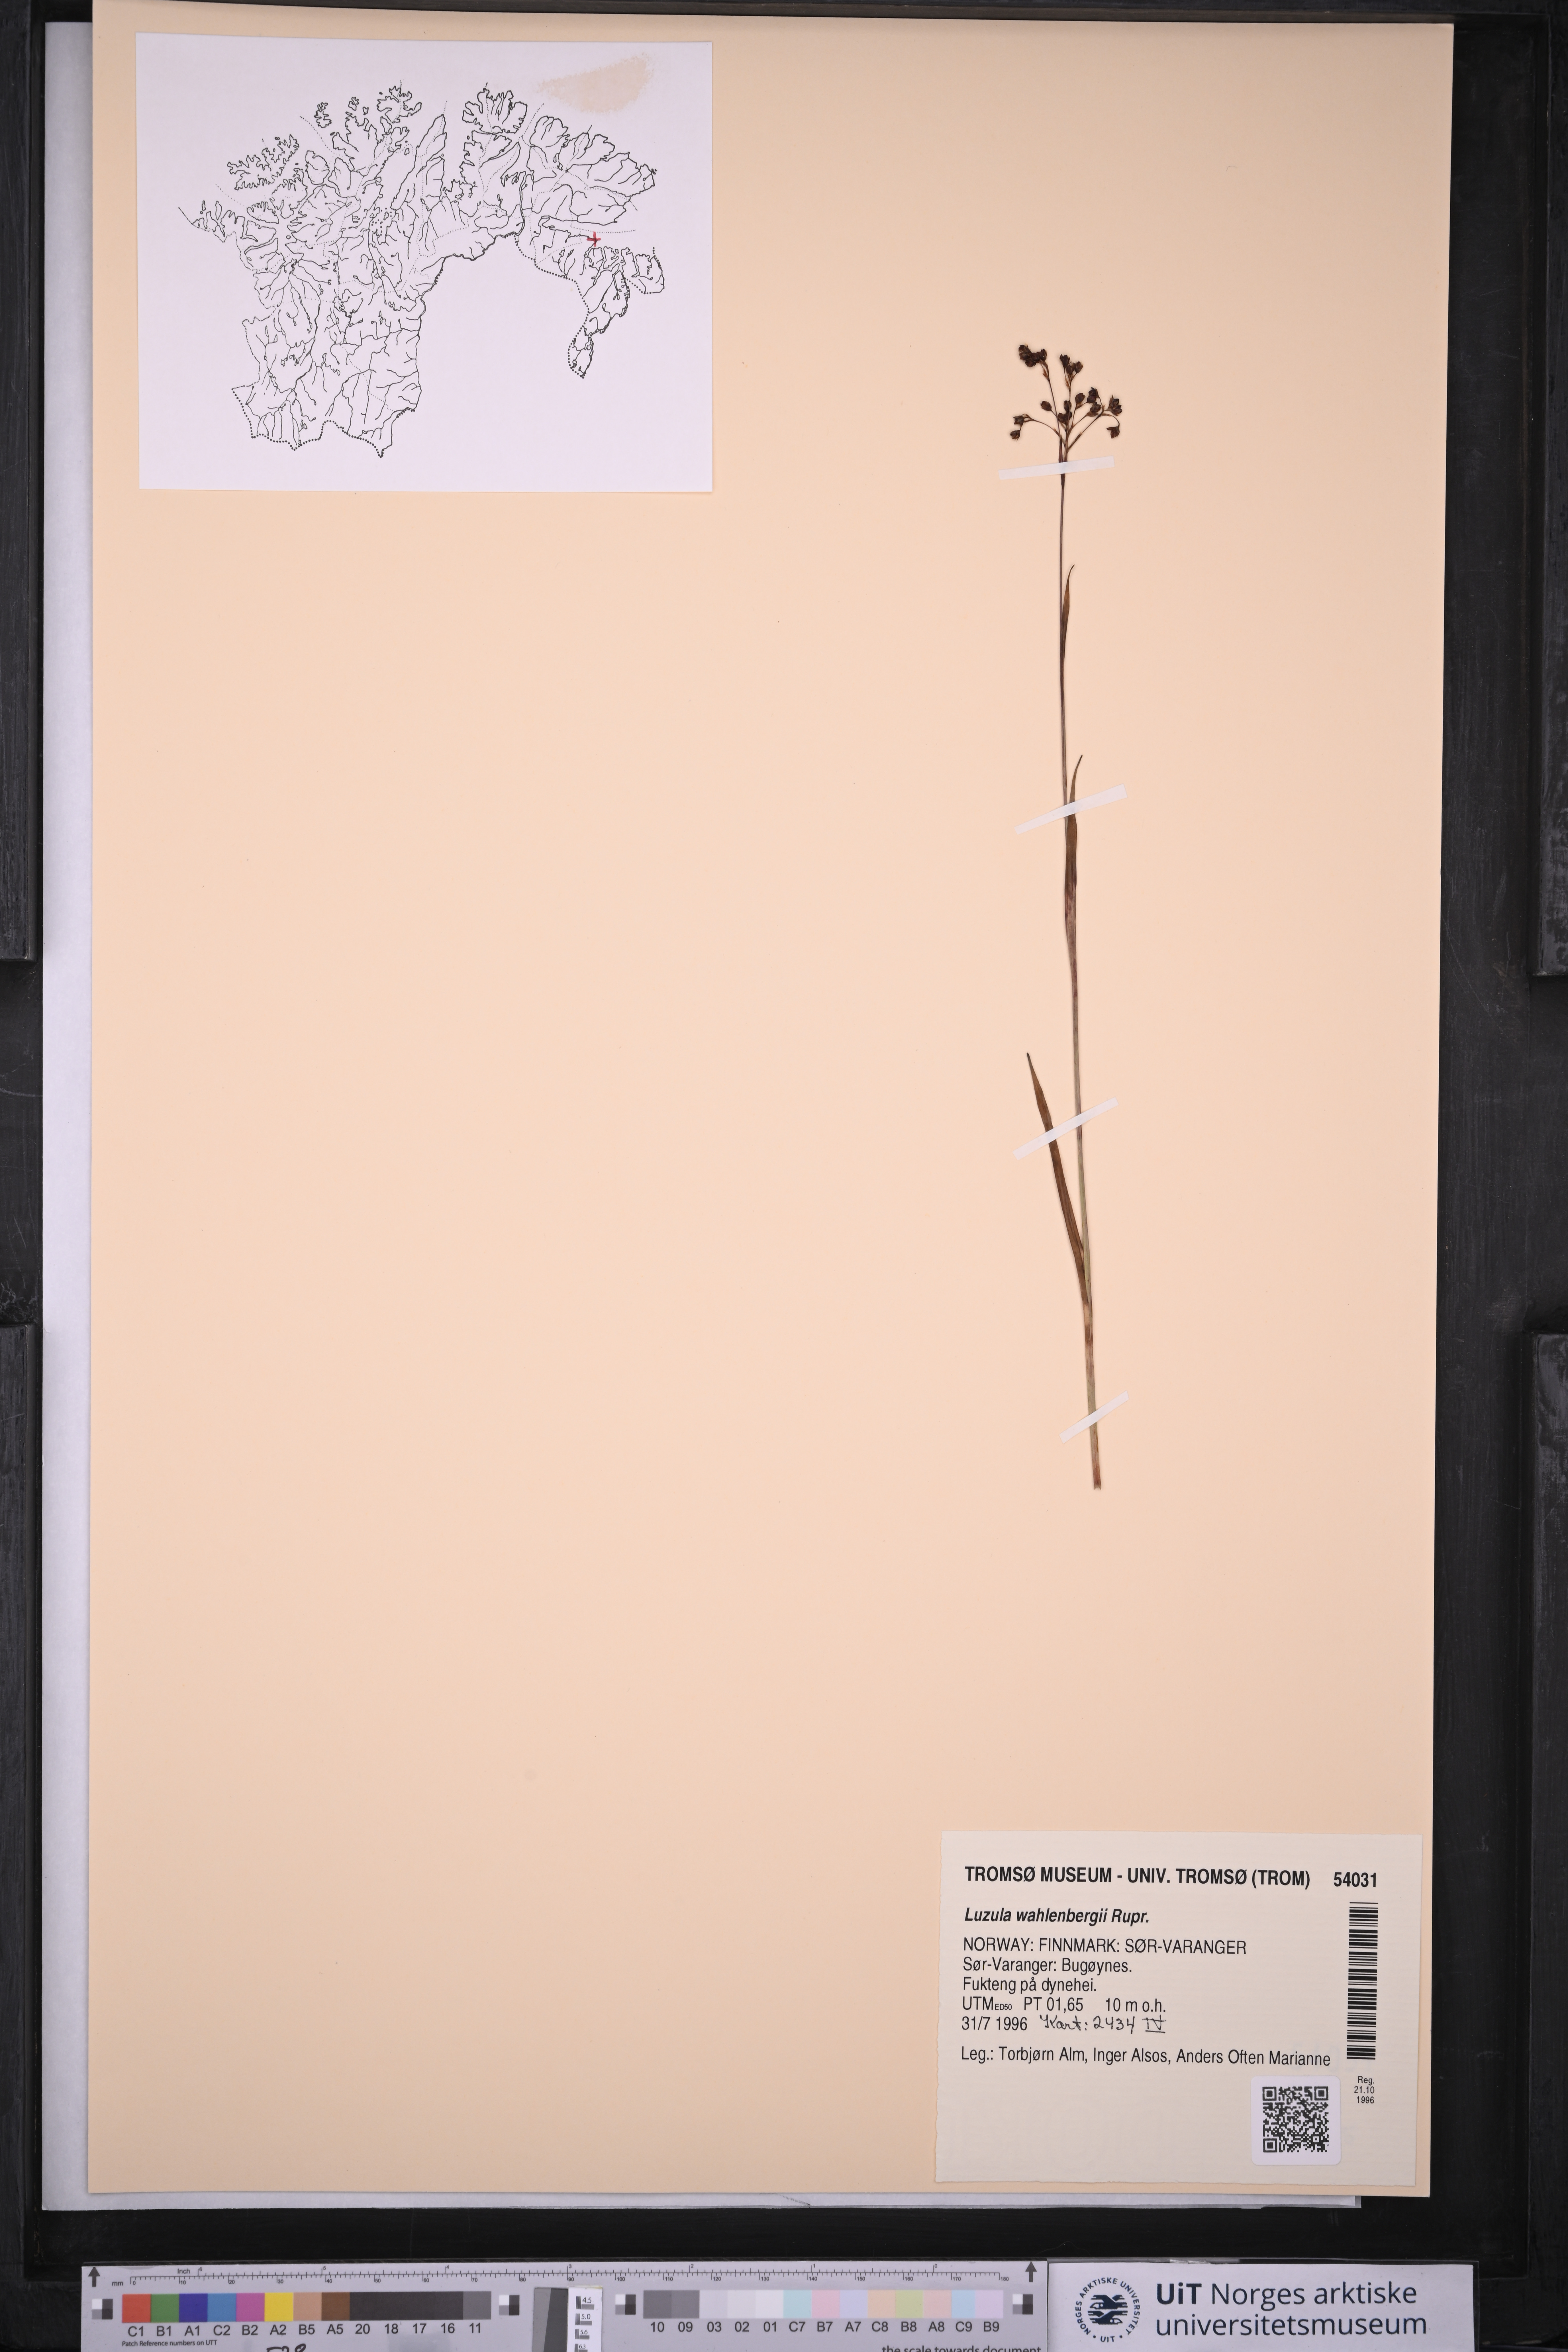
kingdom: Plantae
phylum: Tracheophyta
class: Liliopsida
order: Poales
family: Juncaceae
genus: Luzula
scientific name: Luzula wahlenbergii
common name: Wahlenberg's wood-rush
